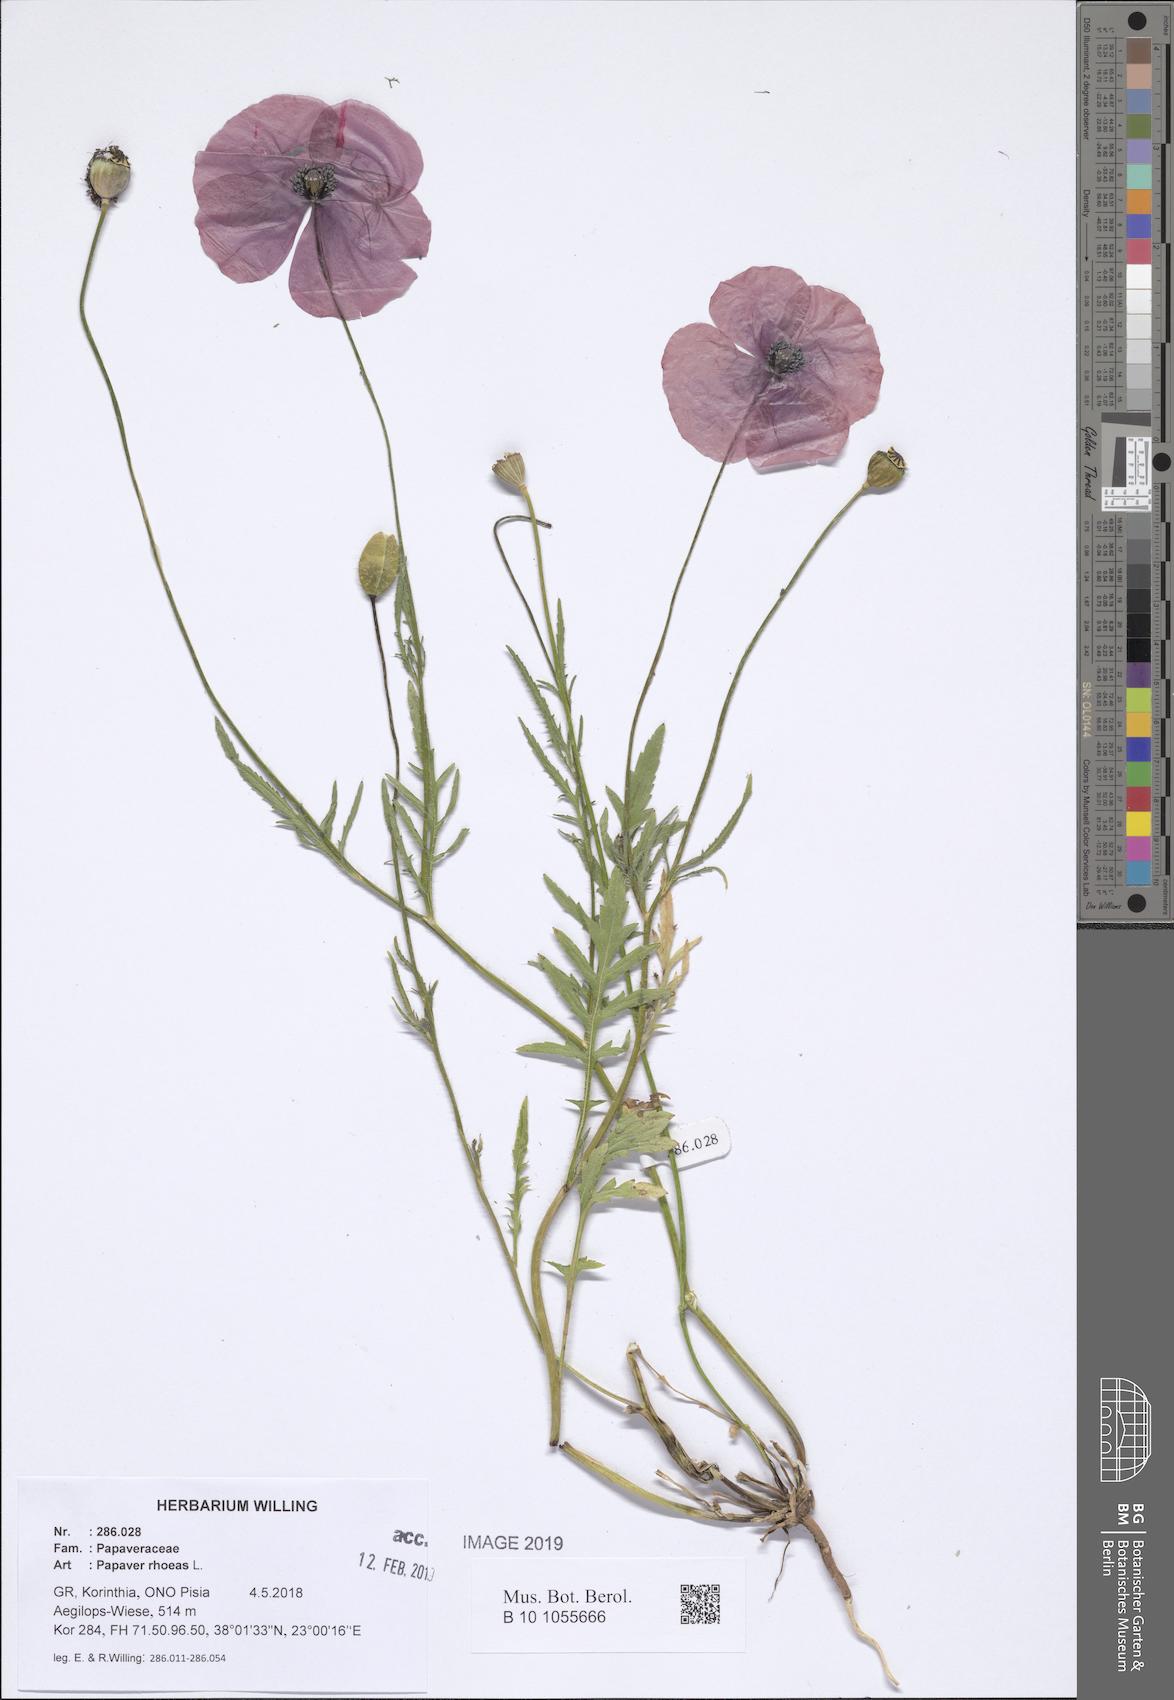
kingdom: Plantae
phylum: Tracheophyta
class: Magnoliopsida
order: Ranunculales
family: Papaveraceae
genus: Papaver
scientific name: Papaver rhoeas
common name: Corn poppy
